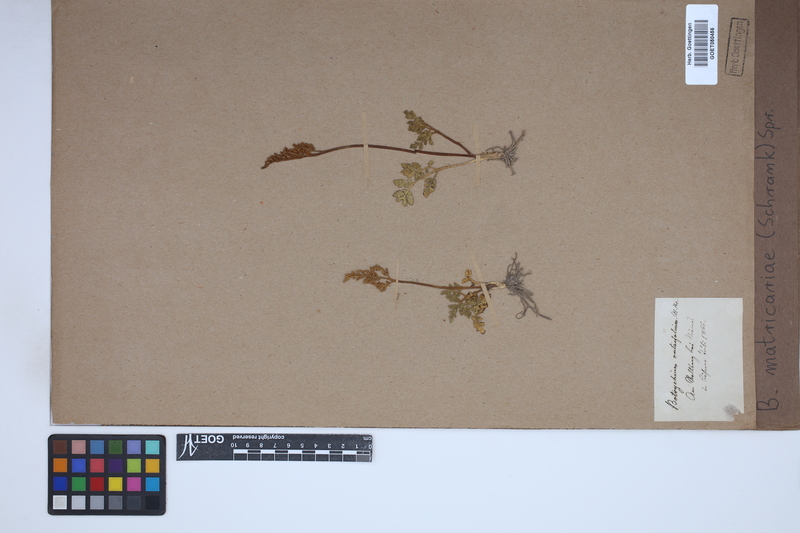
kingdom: Plantae
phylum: Tracheophyta
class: Polypodiopsida
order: Ophioglossales
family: Ophioglossaceae
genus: Sceptridium
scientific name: Sceptridium multifidum
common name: Leathery grape fern
